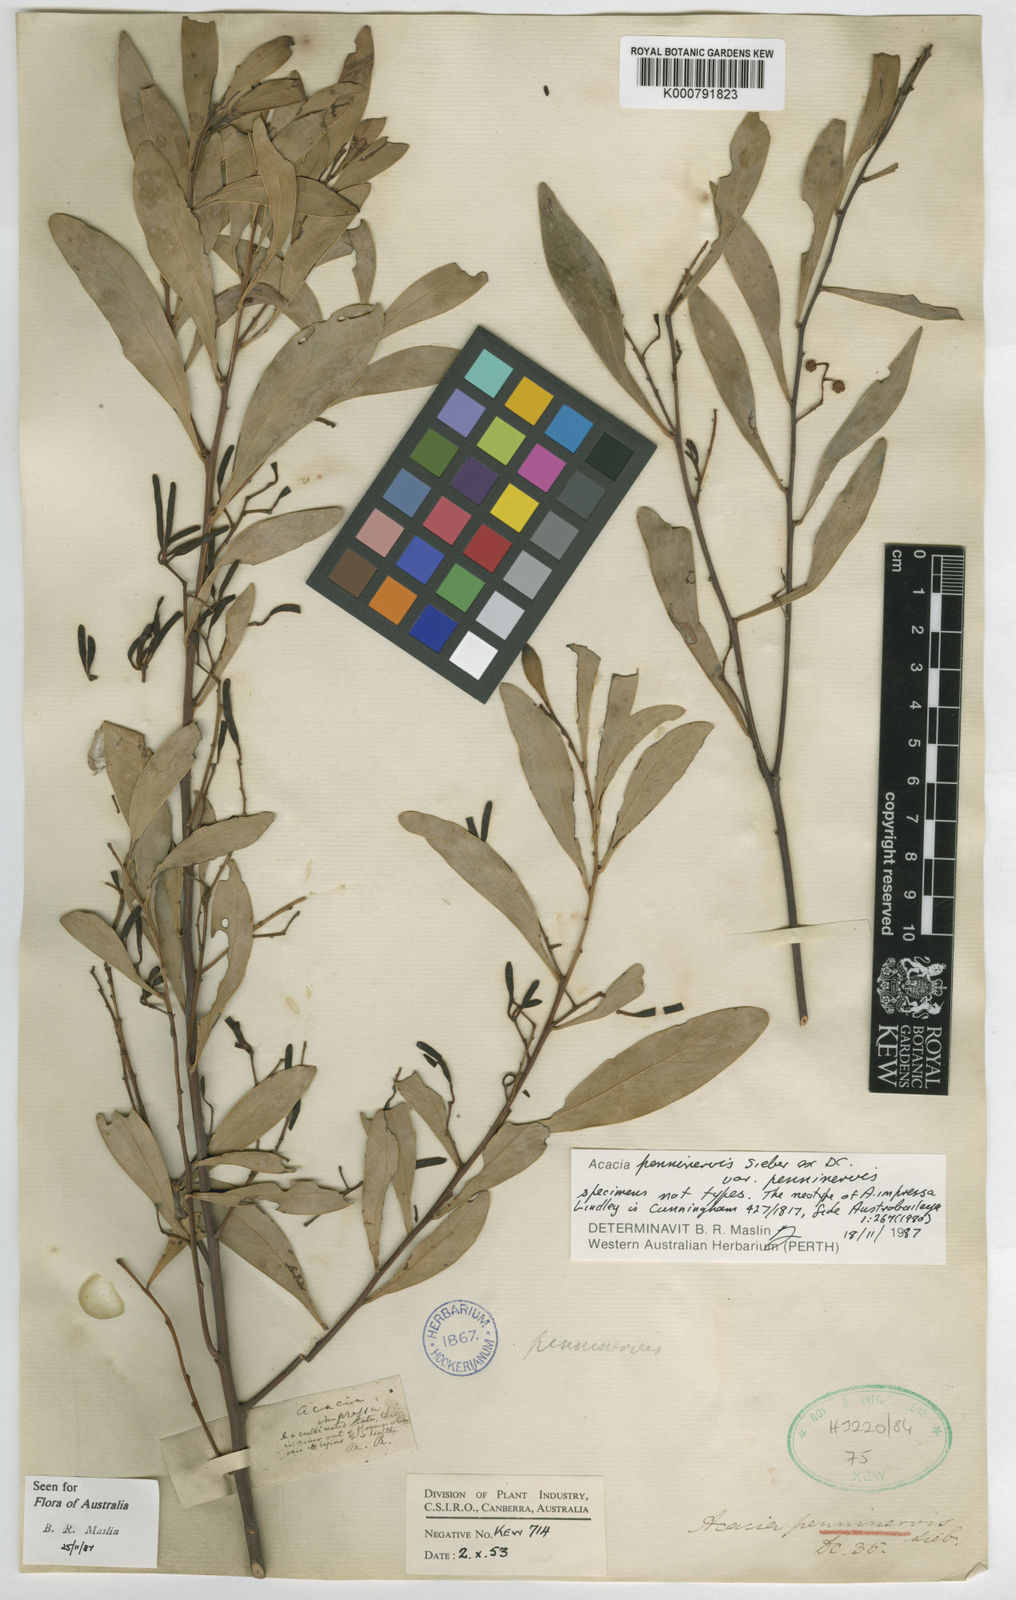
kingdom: Plantae
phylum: Tracheophyta
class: Magnoliopsida
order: Fabales
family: Fabaceae
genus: Acacia
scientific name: Acacia penninervis
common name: Hickory wattle
